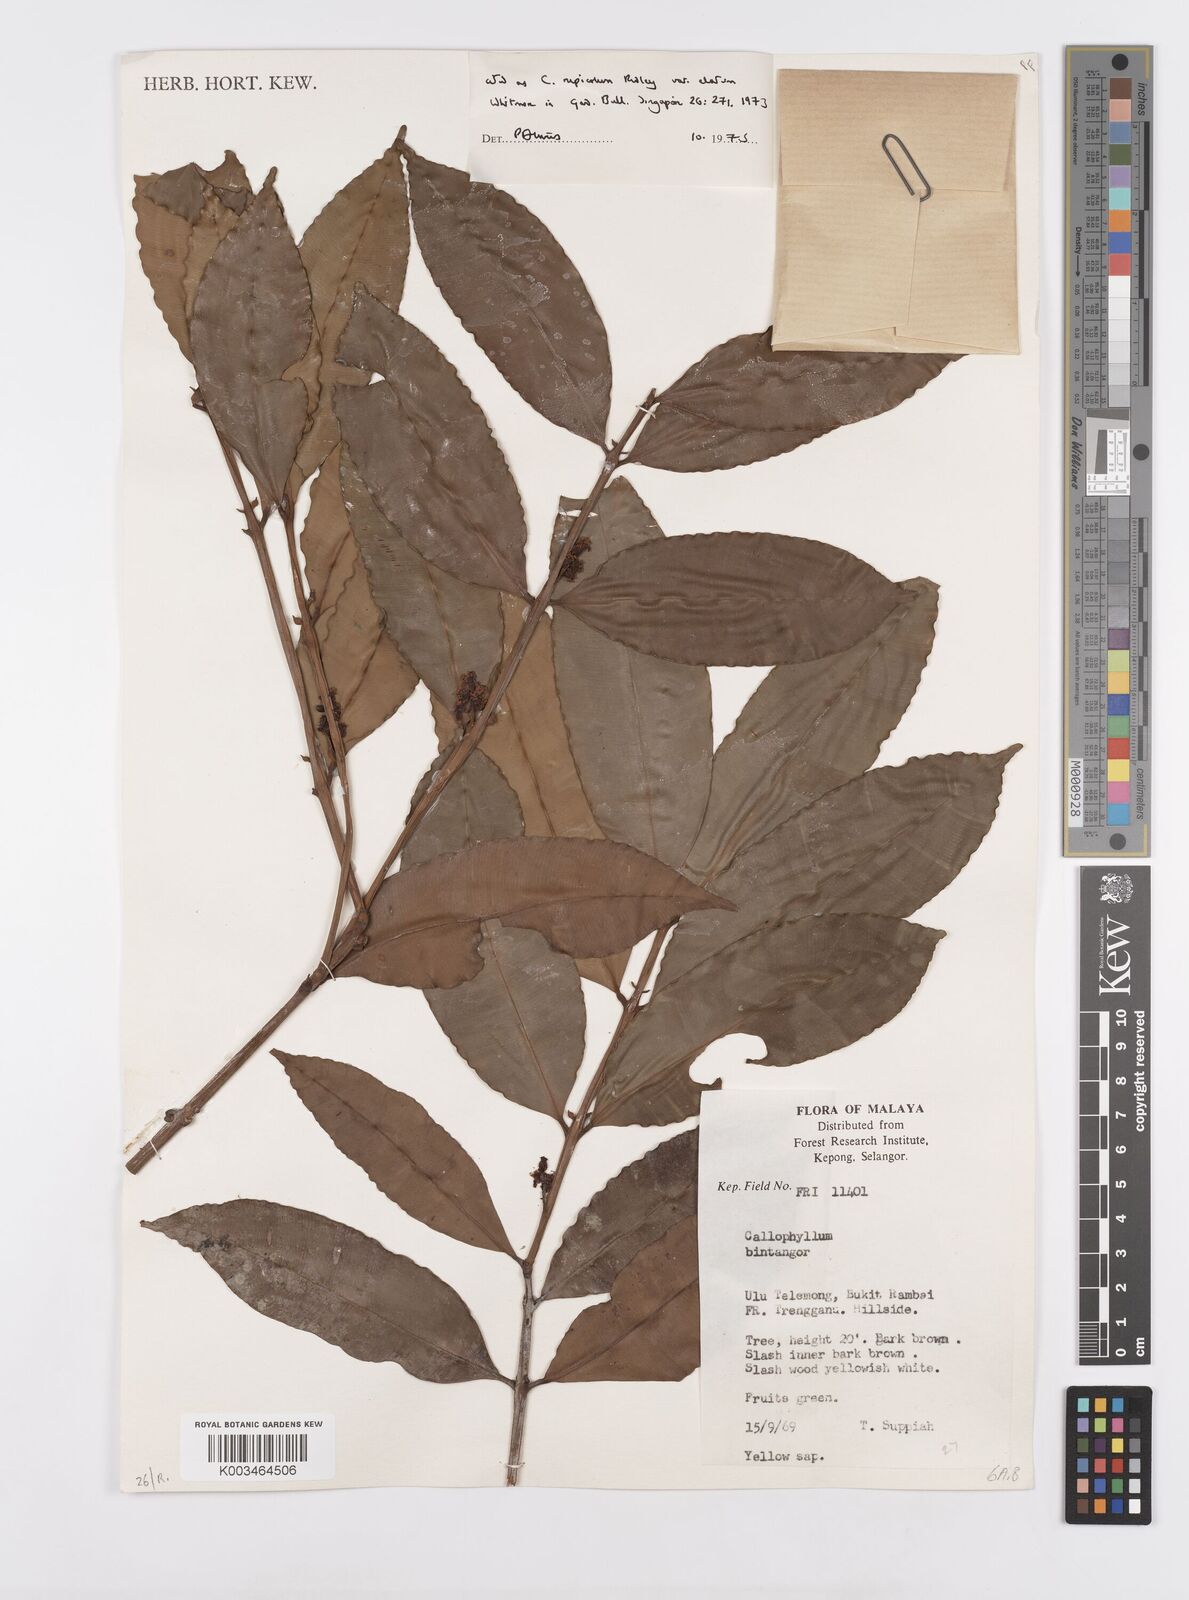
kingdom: Plantae
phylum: Tracheophyta
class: Magnoliopsida
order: Malpighiales
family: Calophyllaceae
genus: Calophyllum
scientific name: Calophyllum rupicola
